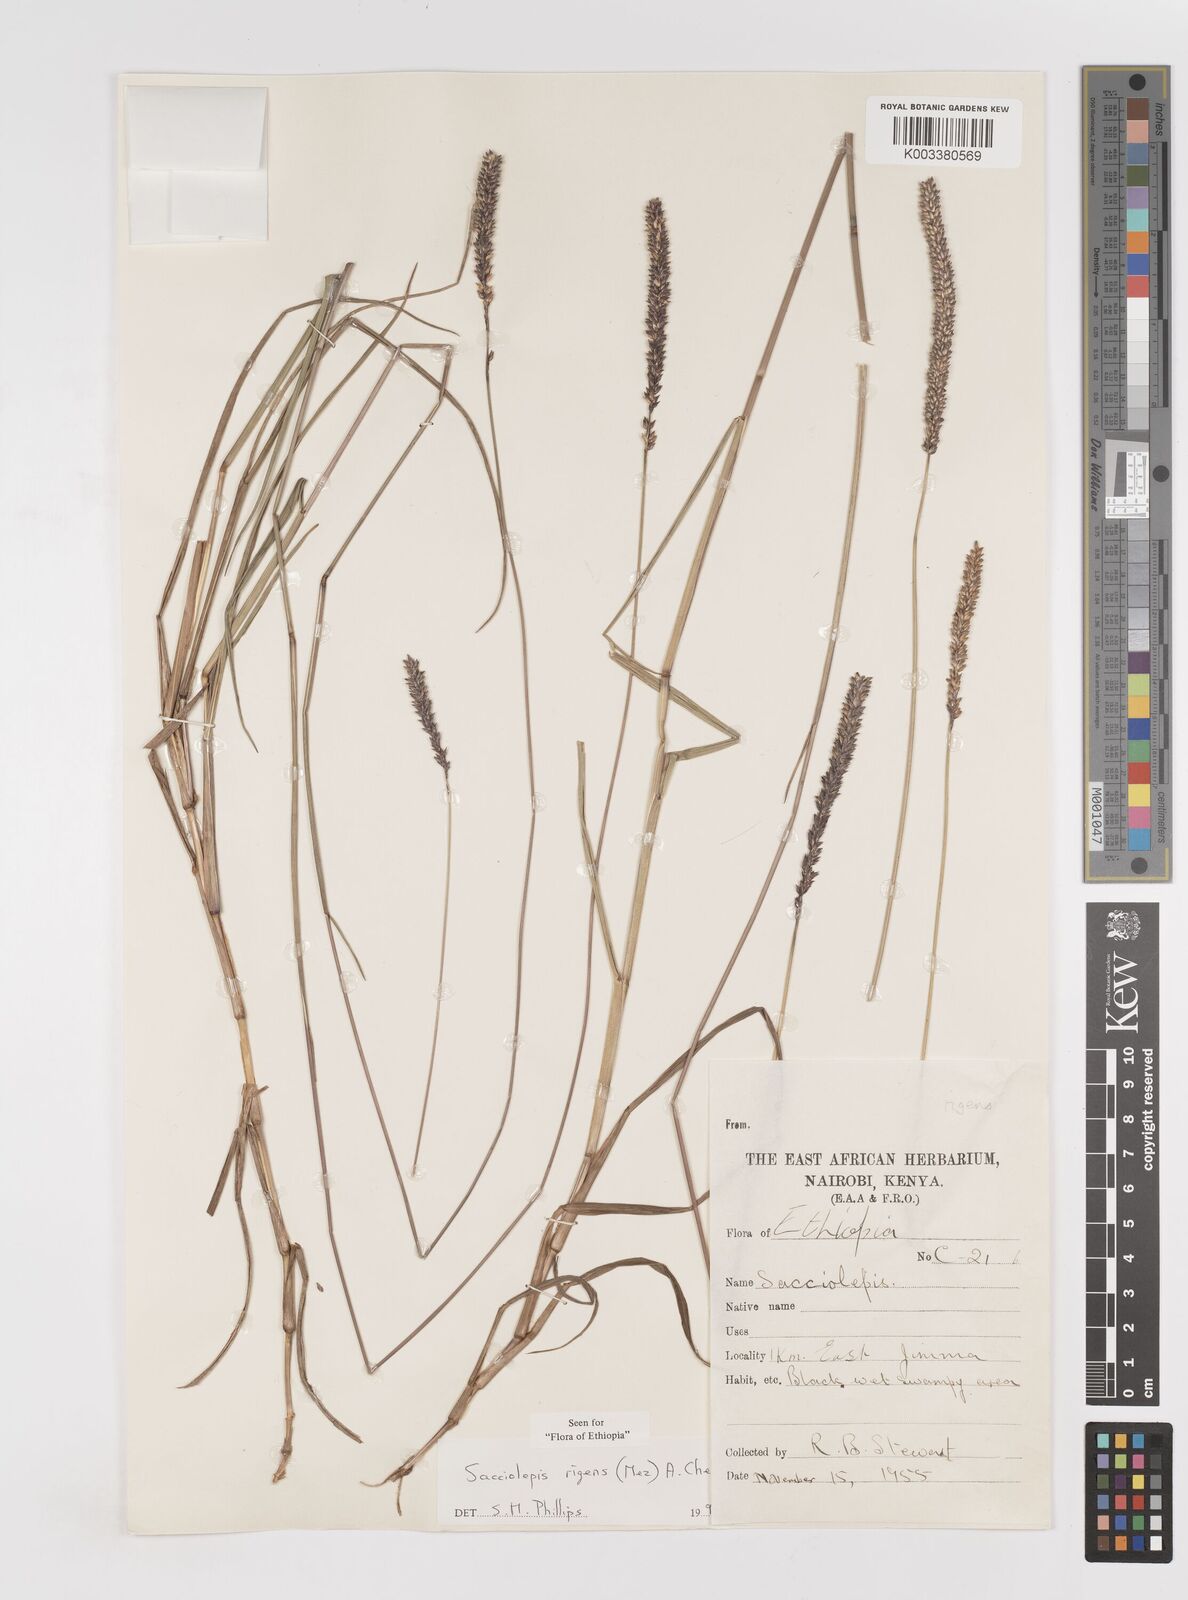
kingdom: Plantae
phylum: Tracheophyta
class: Liliopsida
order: Poales
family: Poaceae
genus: Sacciolepis
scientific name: Sacciolepis leptorrhachis
